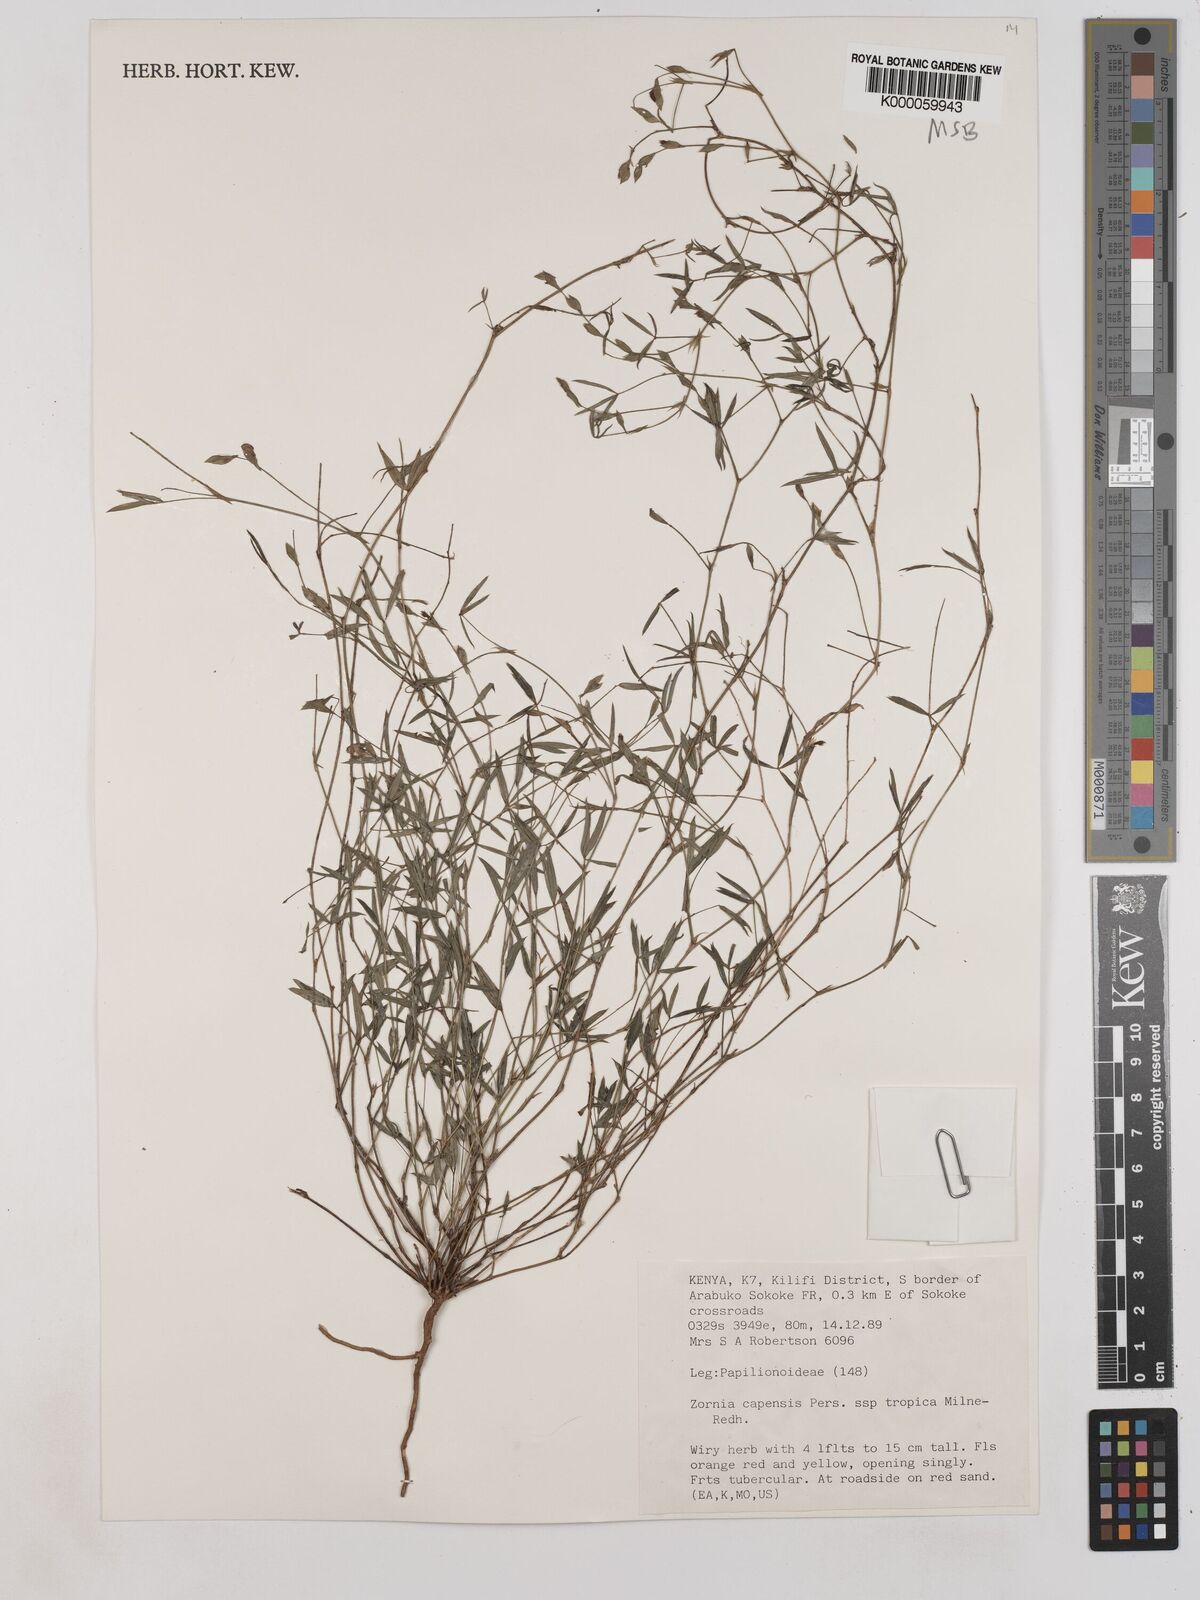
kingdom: Plantae
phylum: Tracheophyta
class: Magnoliopsida
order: Fabales
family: Fabaceae
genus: Zornia
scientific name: Zornia capensis
